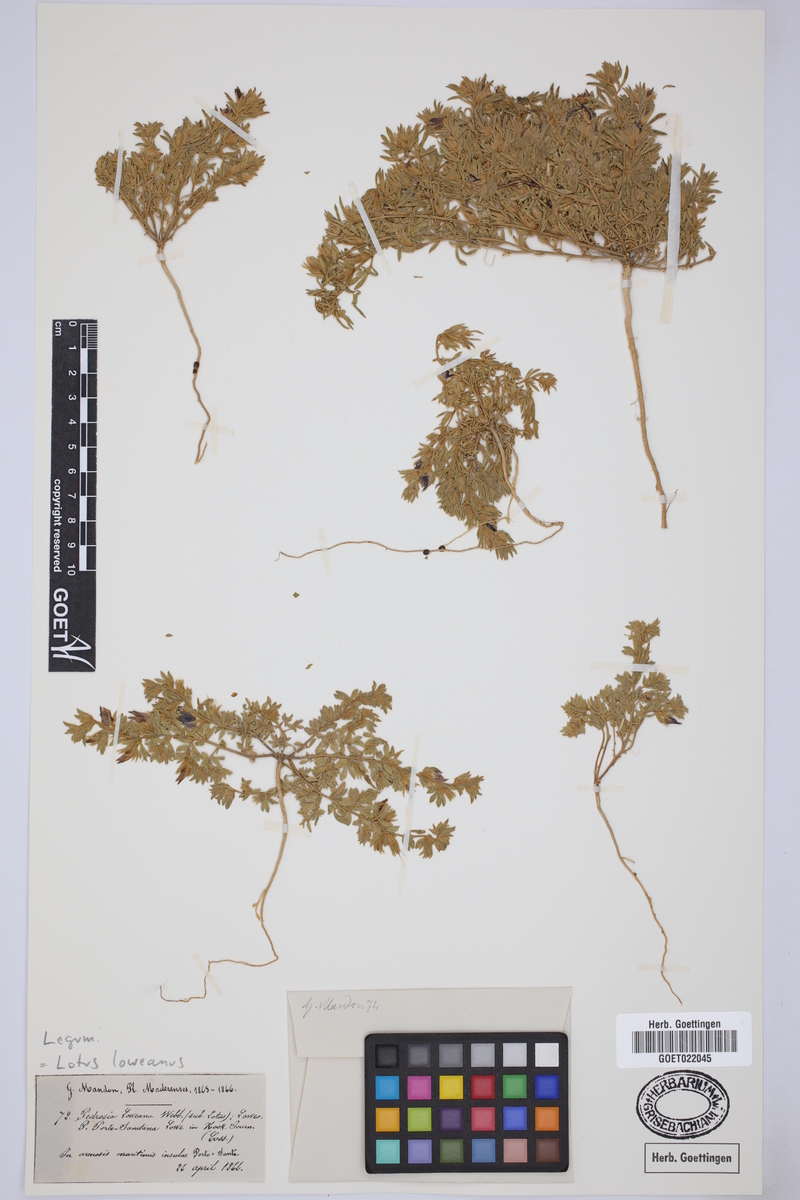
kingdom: Plantae
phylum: Tracheophyta
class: Magnoliopsida
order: Fabales
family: Fabaceae
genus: Lotus
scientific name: Lotus loweanus
